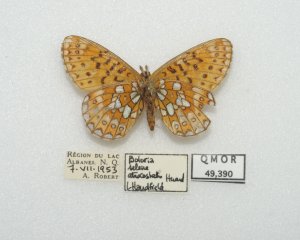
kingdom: Animalia
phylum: Arthropoda
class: Insecta
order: Lepidoptera
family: Nymphalidae
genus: Boloria
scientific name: Boloria eunomia
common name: Bog Fritillary
